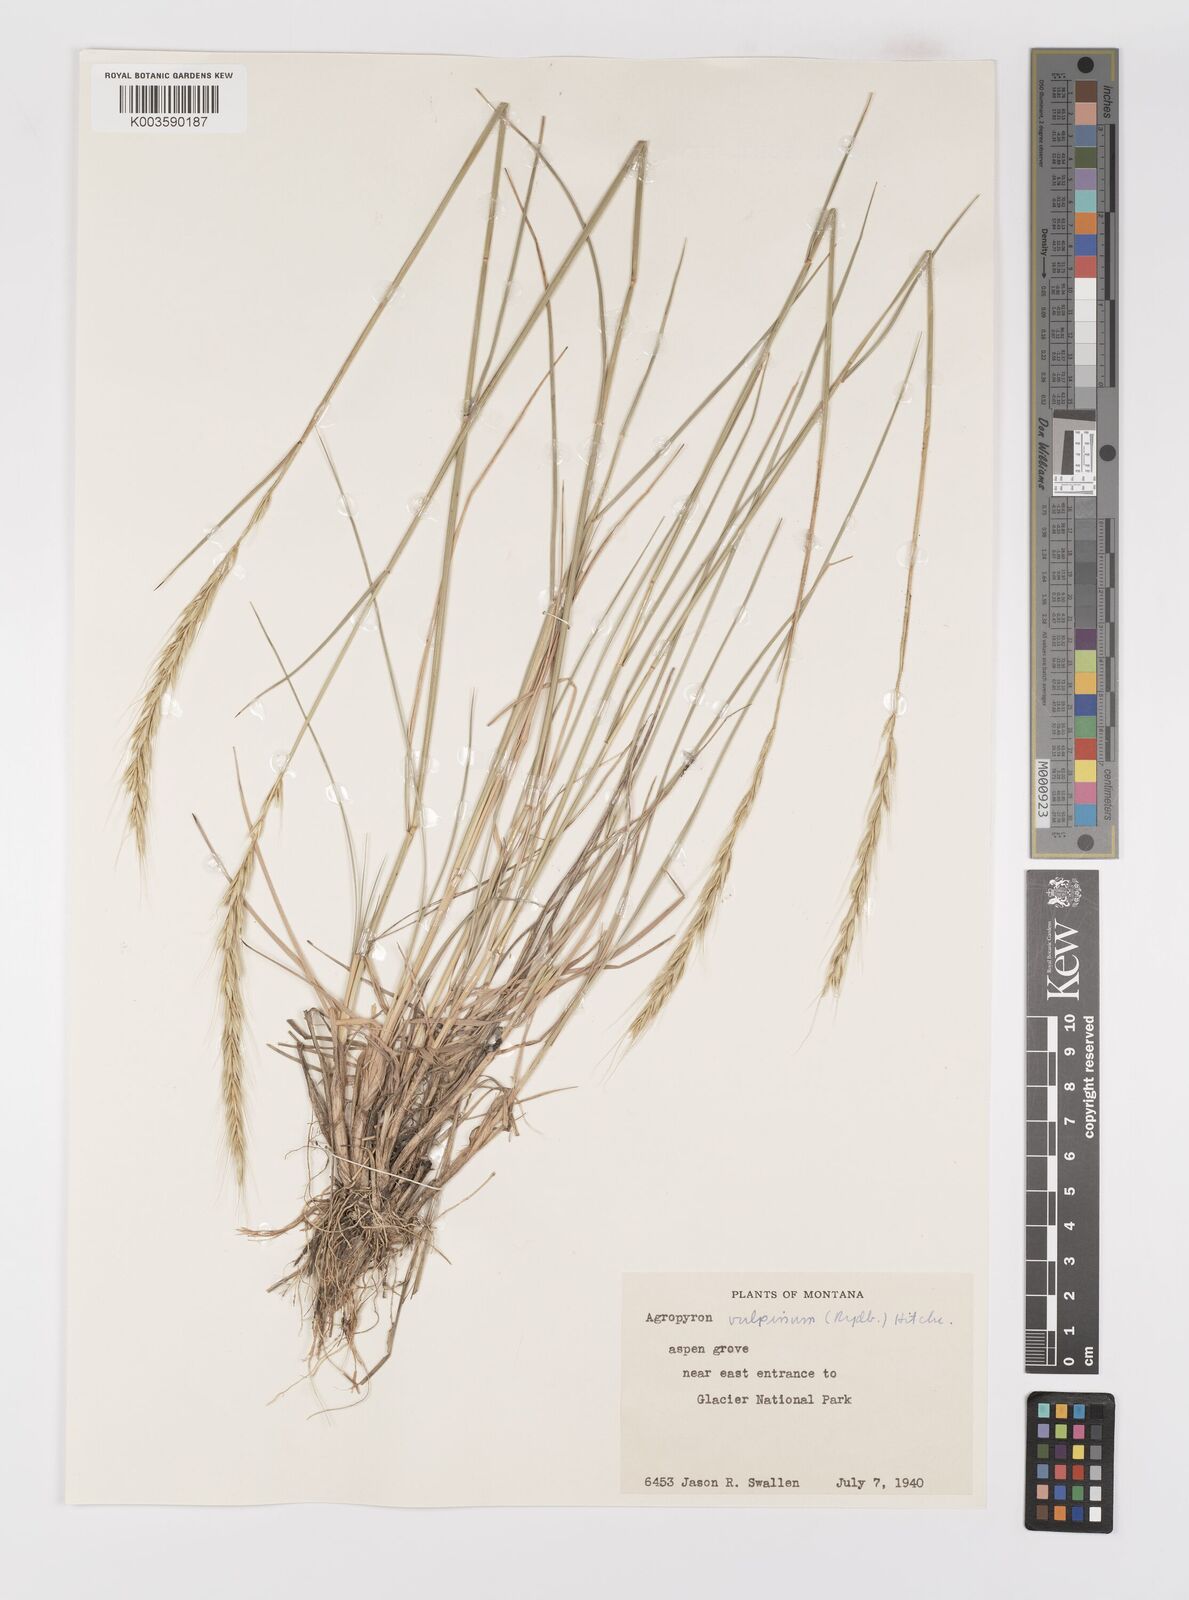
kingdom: Plantae
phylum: Tracheophyta
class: Liliopsida
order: Poales
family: Poaceae
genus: Elymus
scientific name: Elymus vulpinus
